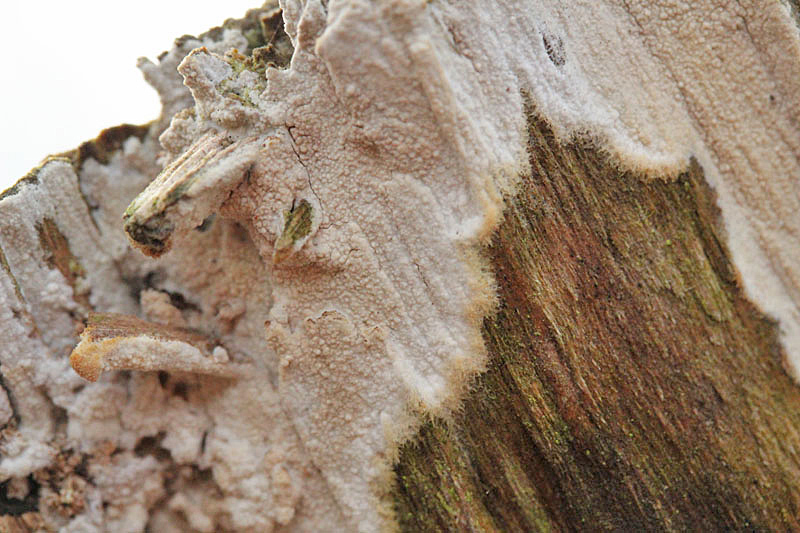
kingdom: Fungi
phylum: Basidiomycota
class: Agaricomycetes
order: Polyporales
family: Hyphodermataceae
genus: Hyphoderma
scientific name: Hyphoderma setigerum
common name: håret kalkskind
